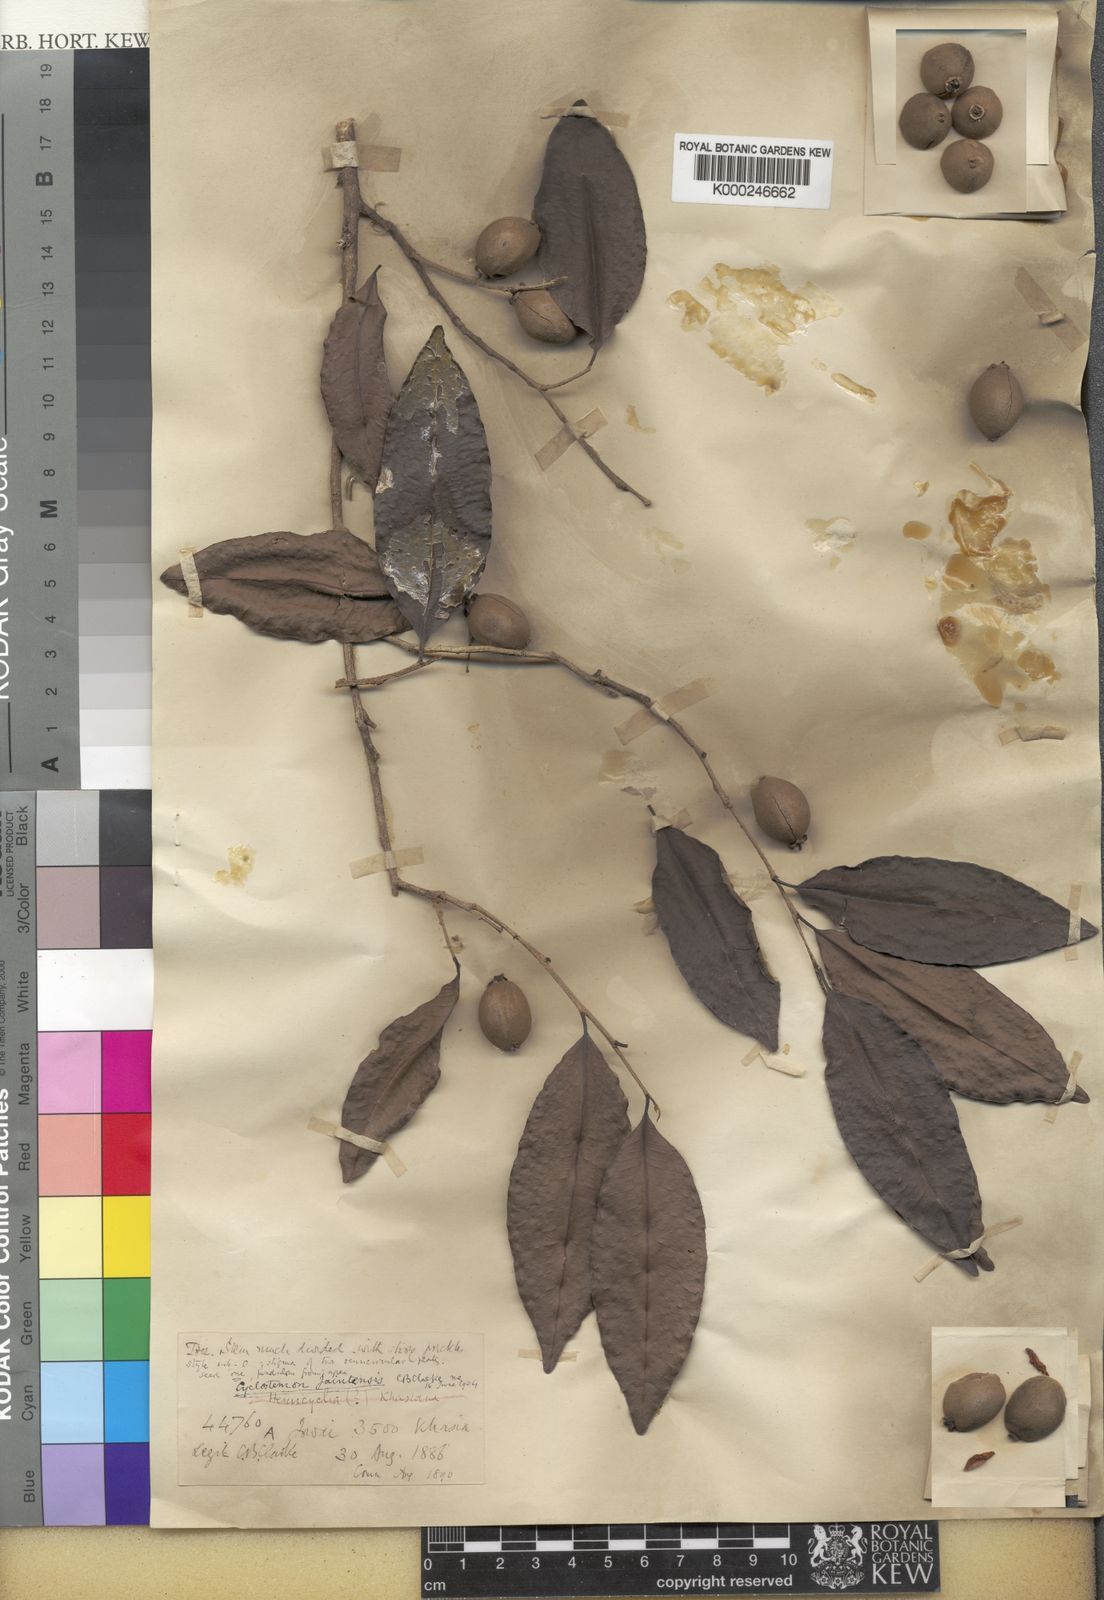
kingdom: Plantae
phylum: Tracheophyta
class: Magnoliopsida
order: Malpighiales
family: Putranjivaceae
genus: Drypetes
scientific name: Drypetes jaintensis
